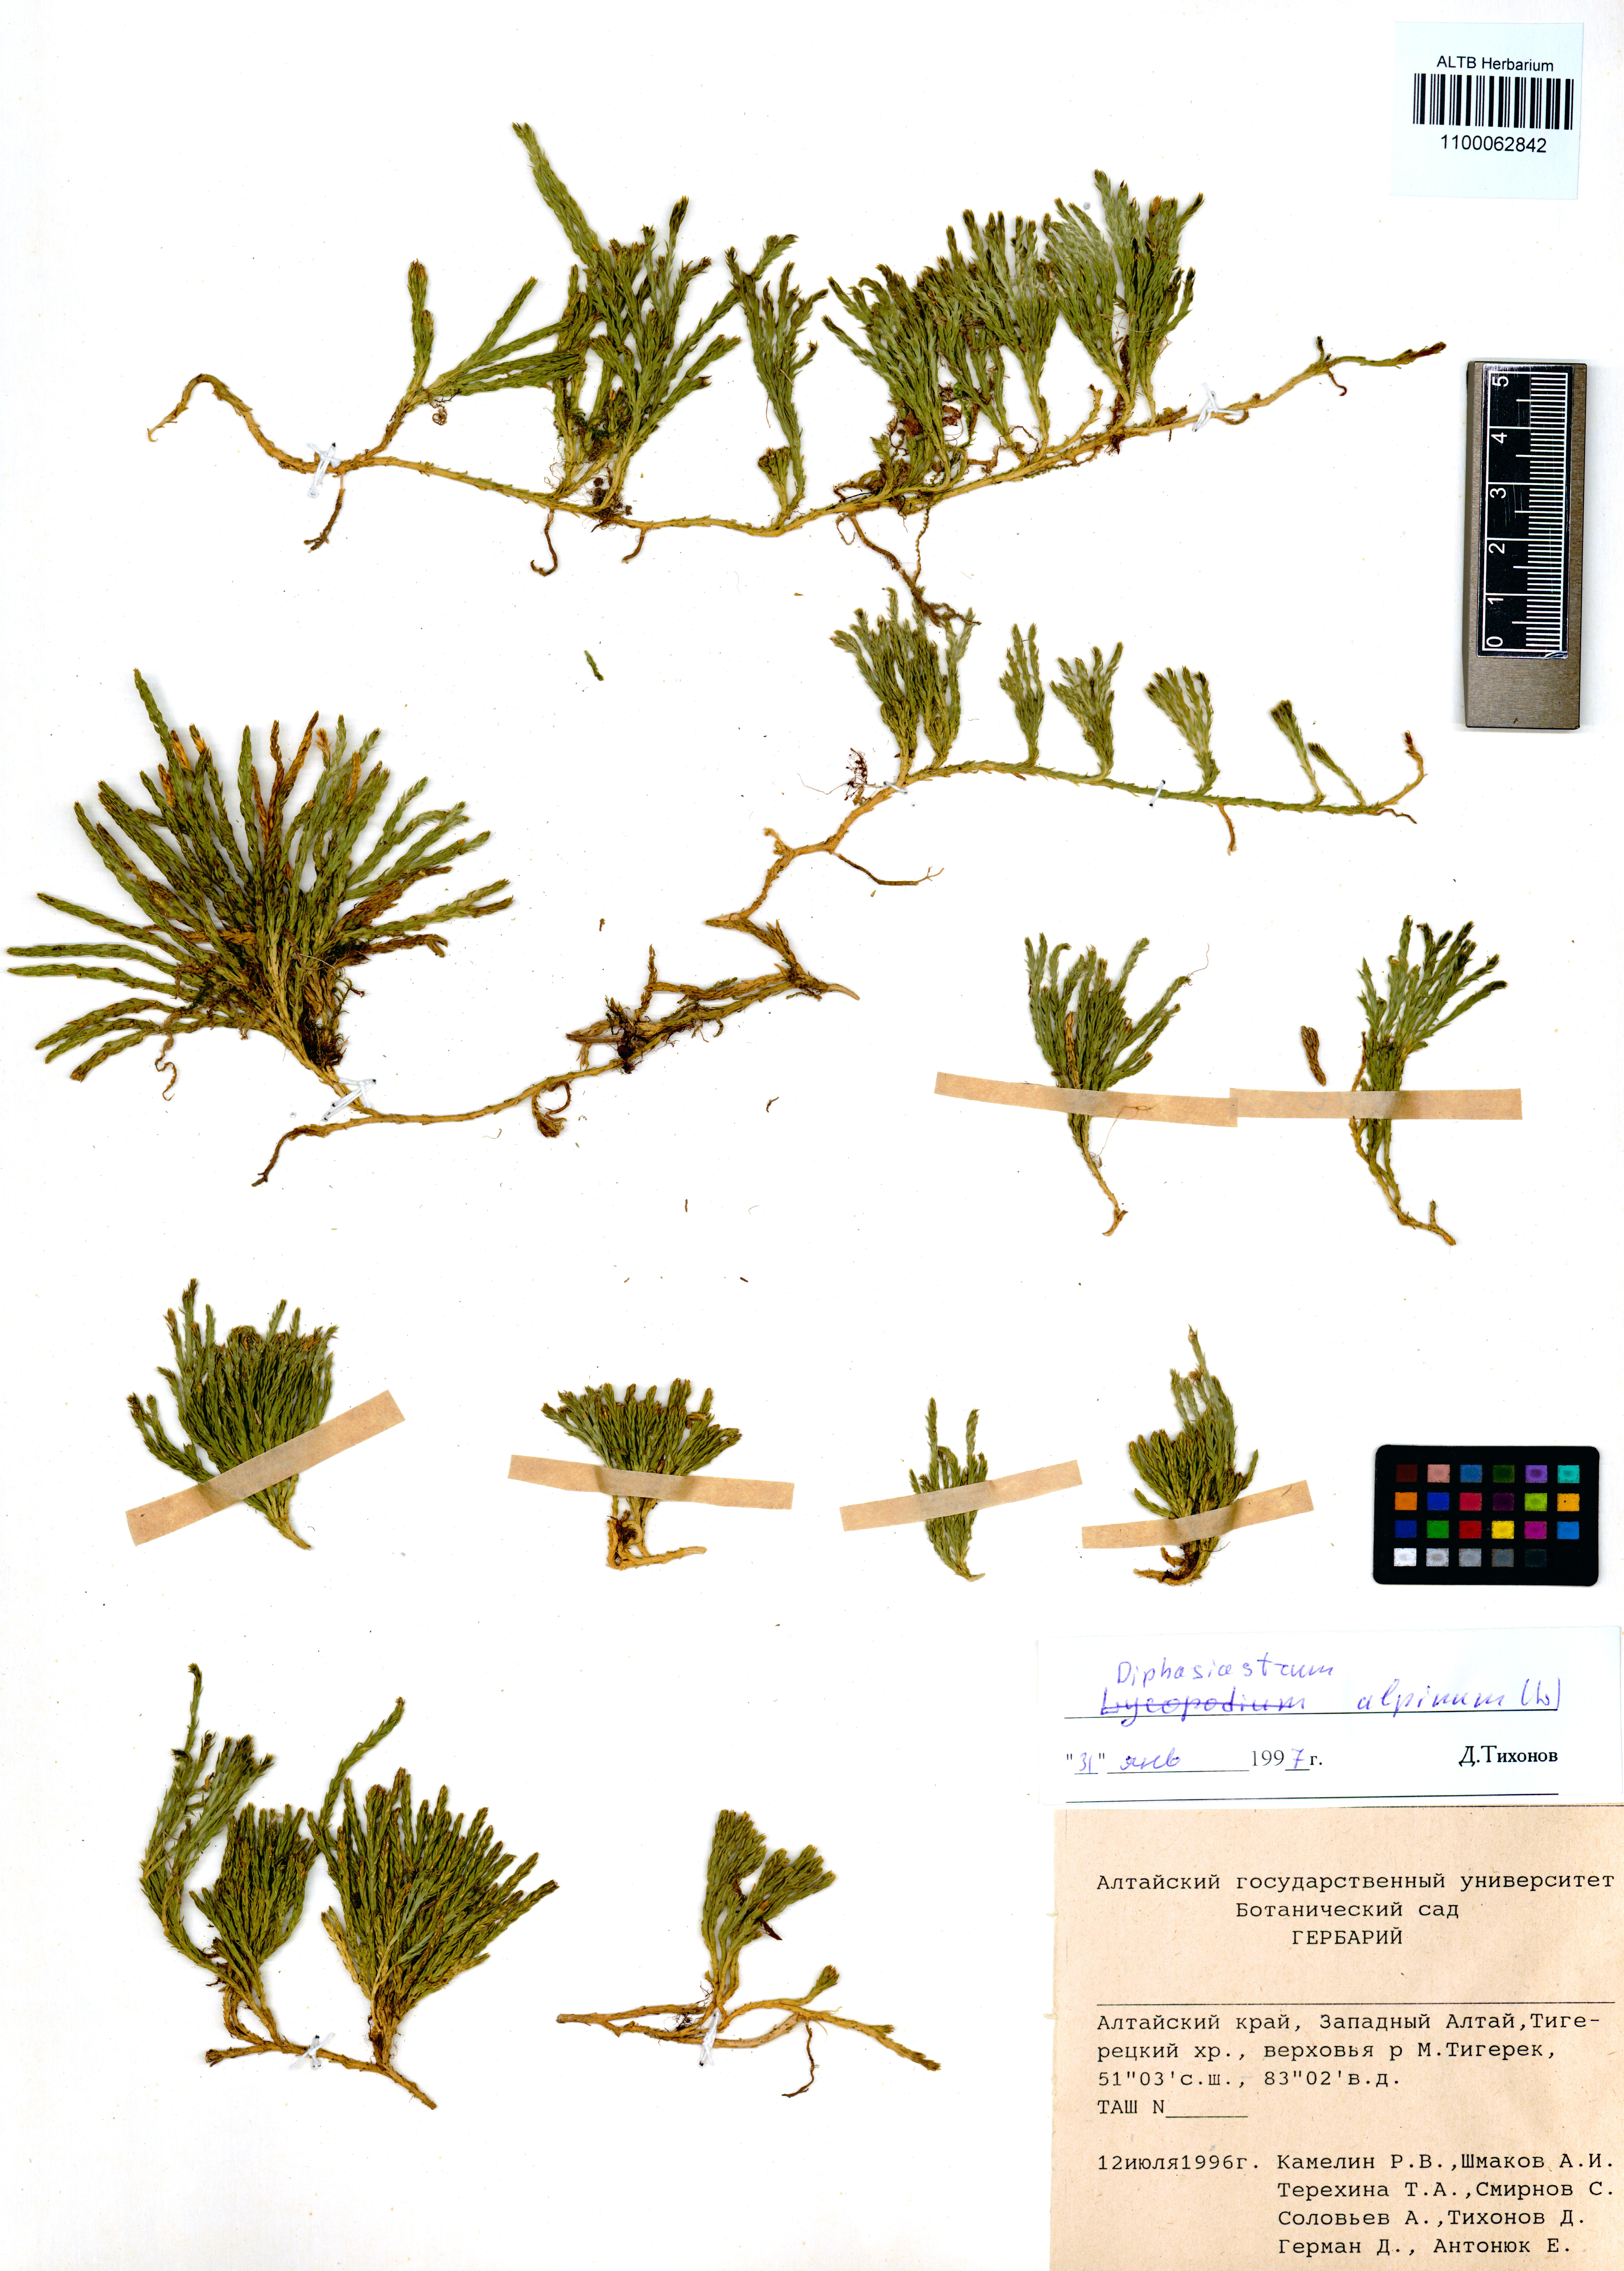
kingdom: Plantae
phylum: Tracheophyta
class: Lycopodiopsida
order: Lycopodiales
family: Lycopodiaceae
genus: Diphasiastrum
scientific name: Diphasiastrum alpinum
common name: Alpine clubmoss
